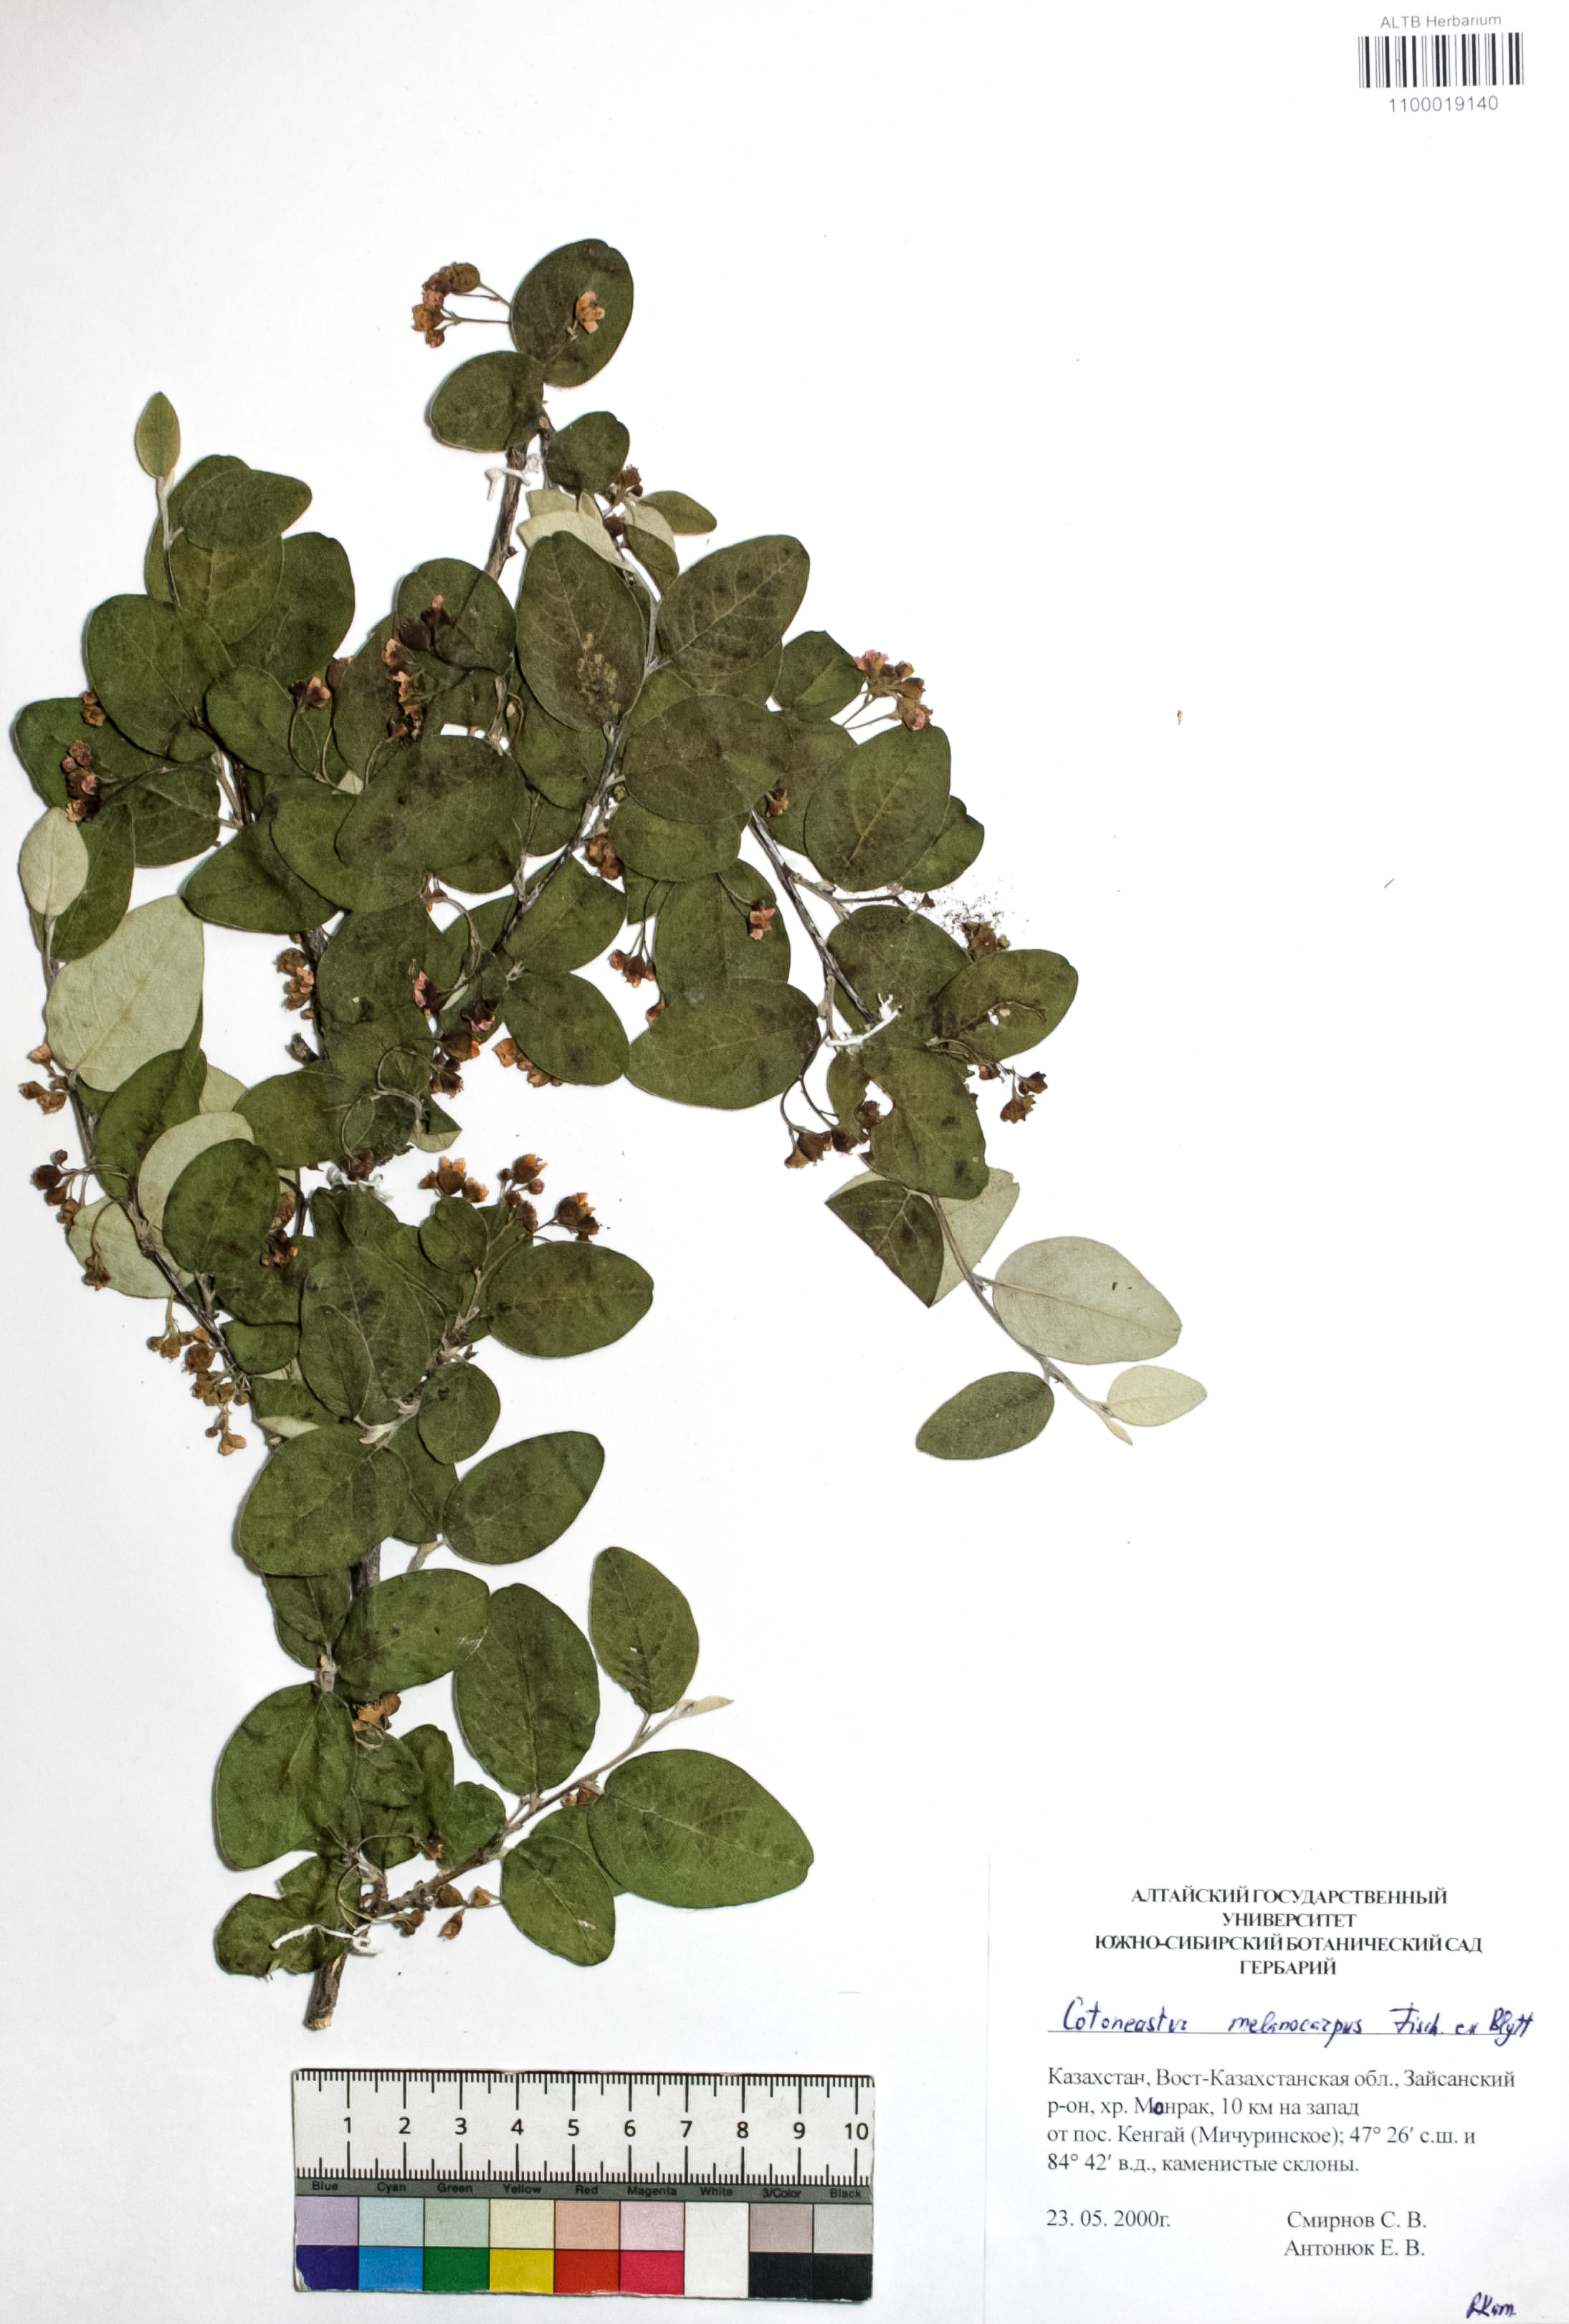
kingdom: Plantae
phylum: Tracheophyta
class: Magnoliopsida
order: Rosales
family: Rosaceae
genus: Cotoneaster
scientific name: Cotoneaster niger
